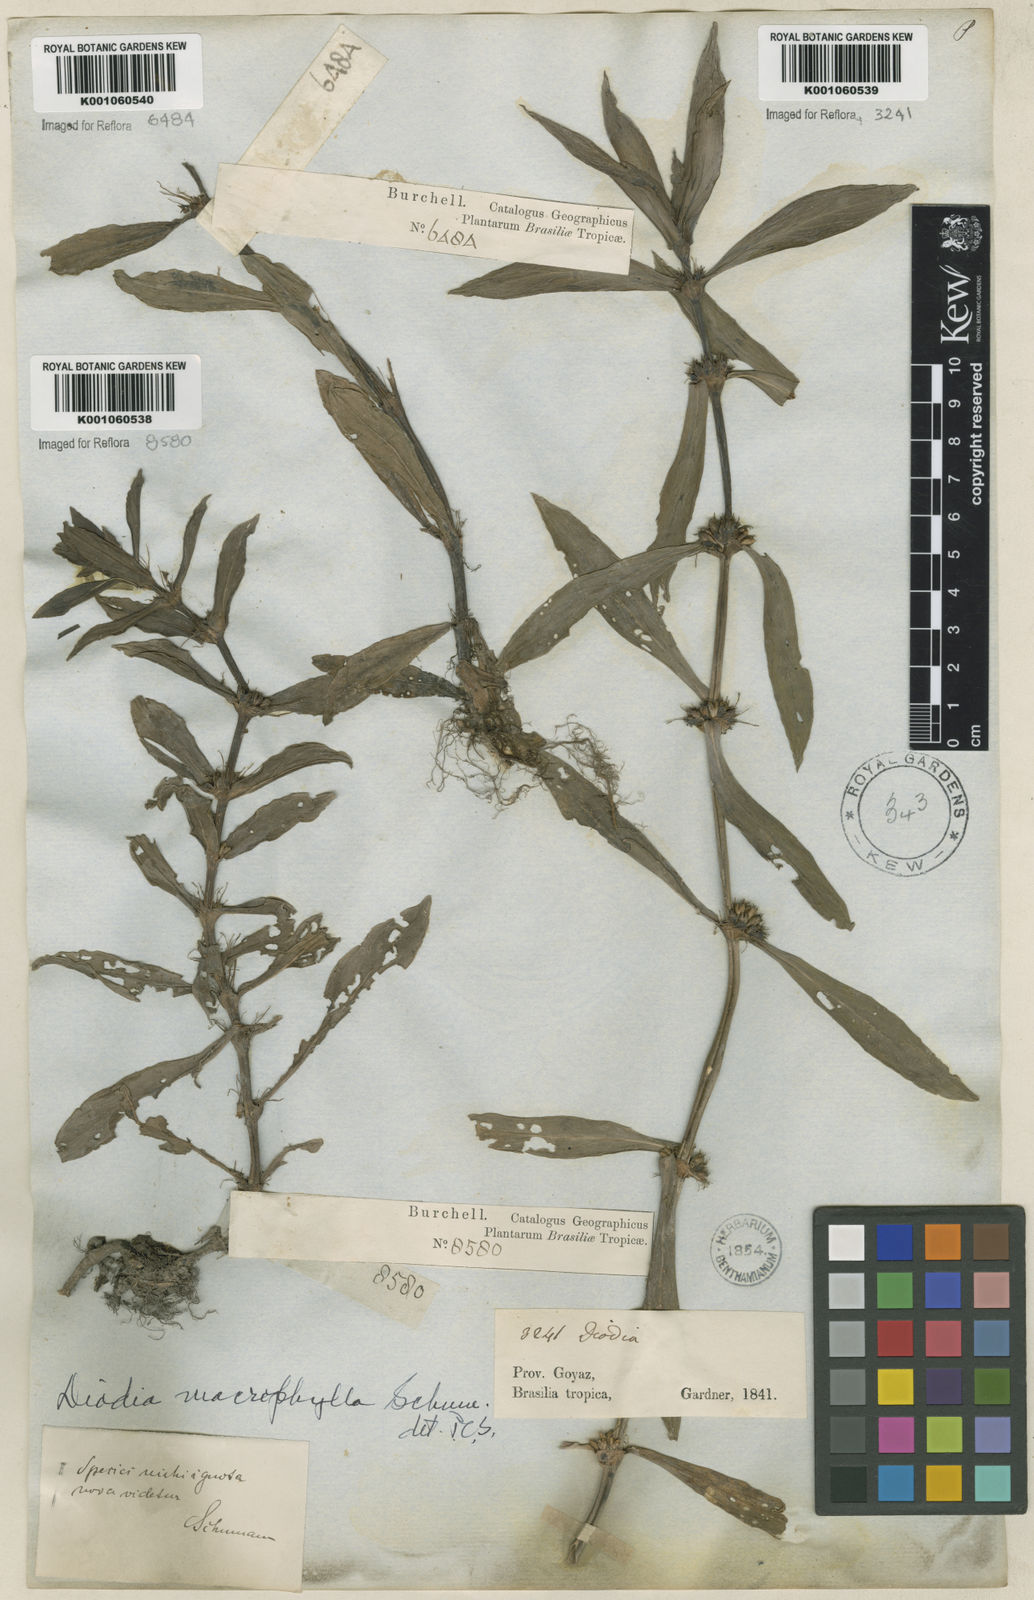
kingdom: Plantae
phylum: Tracheophyta
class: Magnoliopsida
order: Gentianales
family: Rubiaceae
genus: Diodia
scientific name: Diodia macrophylla
